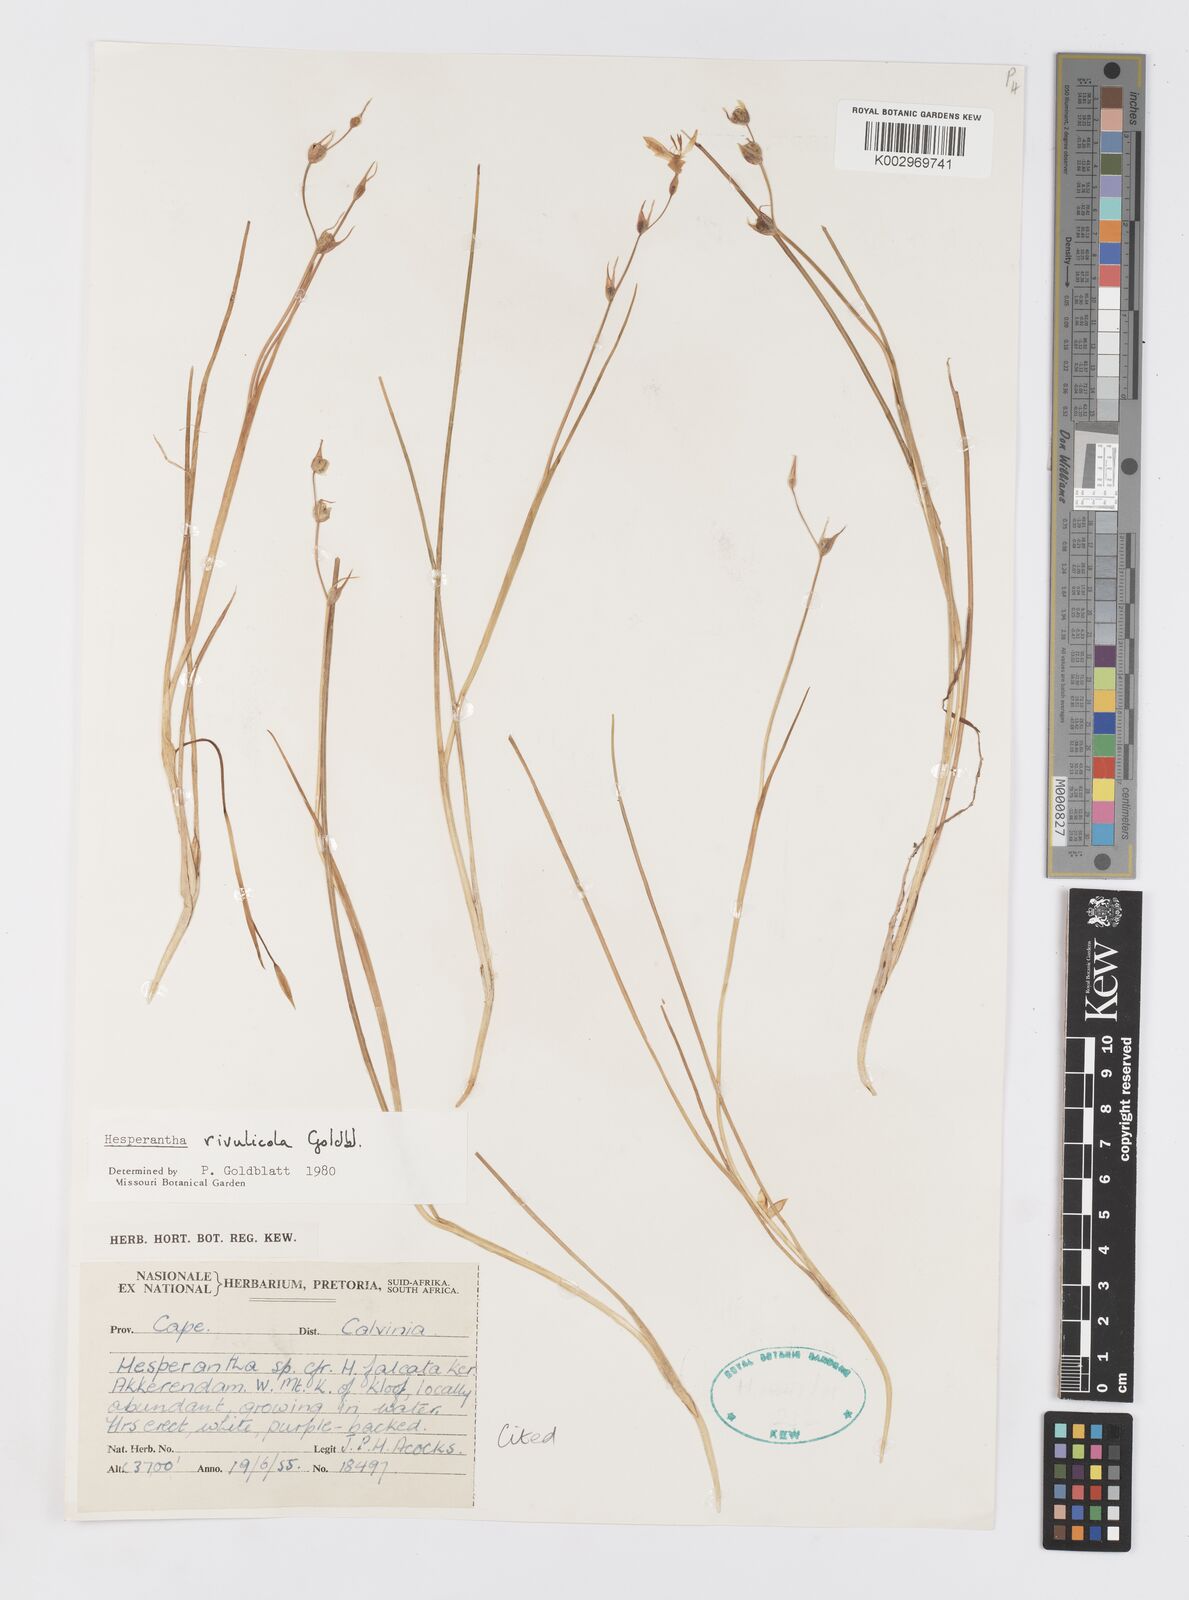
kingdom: Plantae
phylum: Tracheophyta
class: Liliopsida
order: Asparagales
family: Iridaceae
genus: Hesperantha
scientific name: Hesperantha rivulicola
